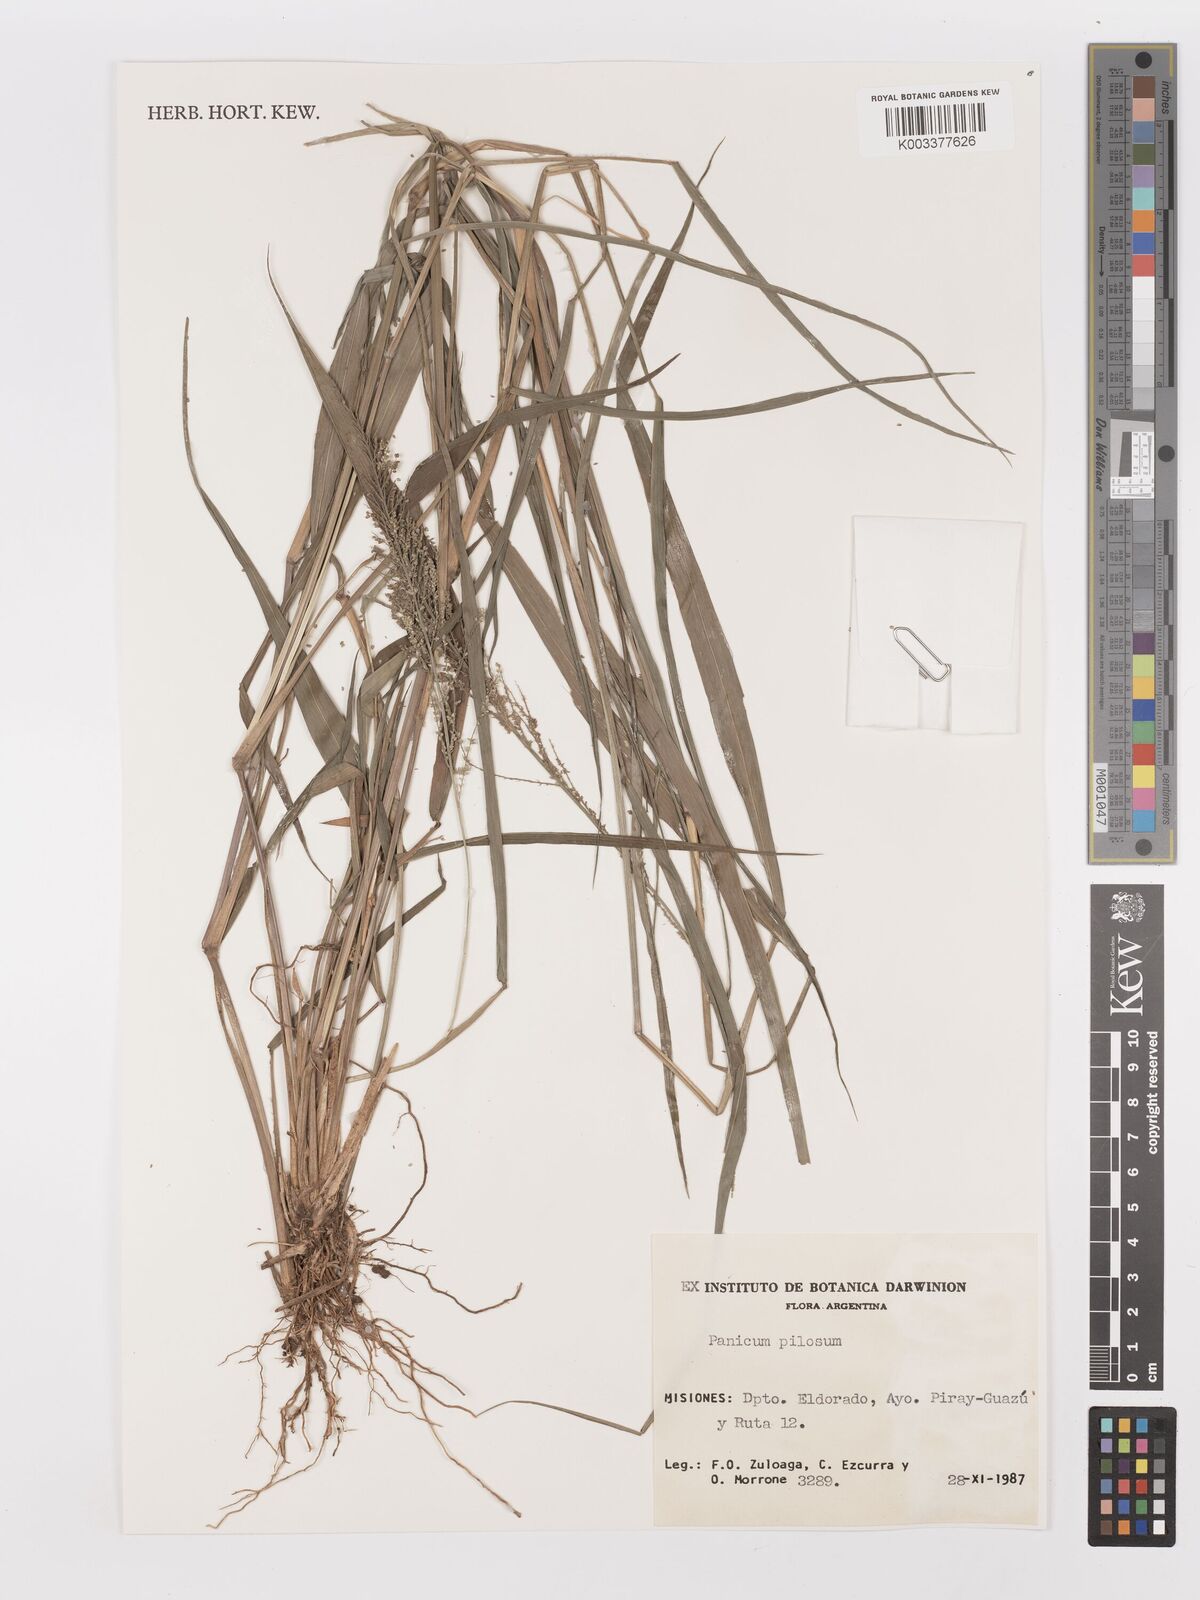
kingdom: Plantae
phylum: Tracheophyta
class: Liliopsida
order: Poales
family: Poaceae
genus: Rugoloa
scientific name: Rugoloa pilosa
